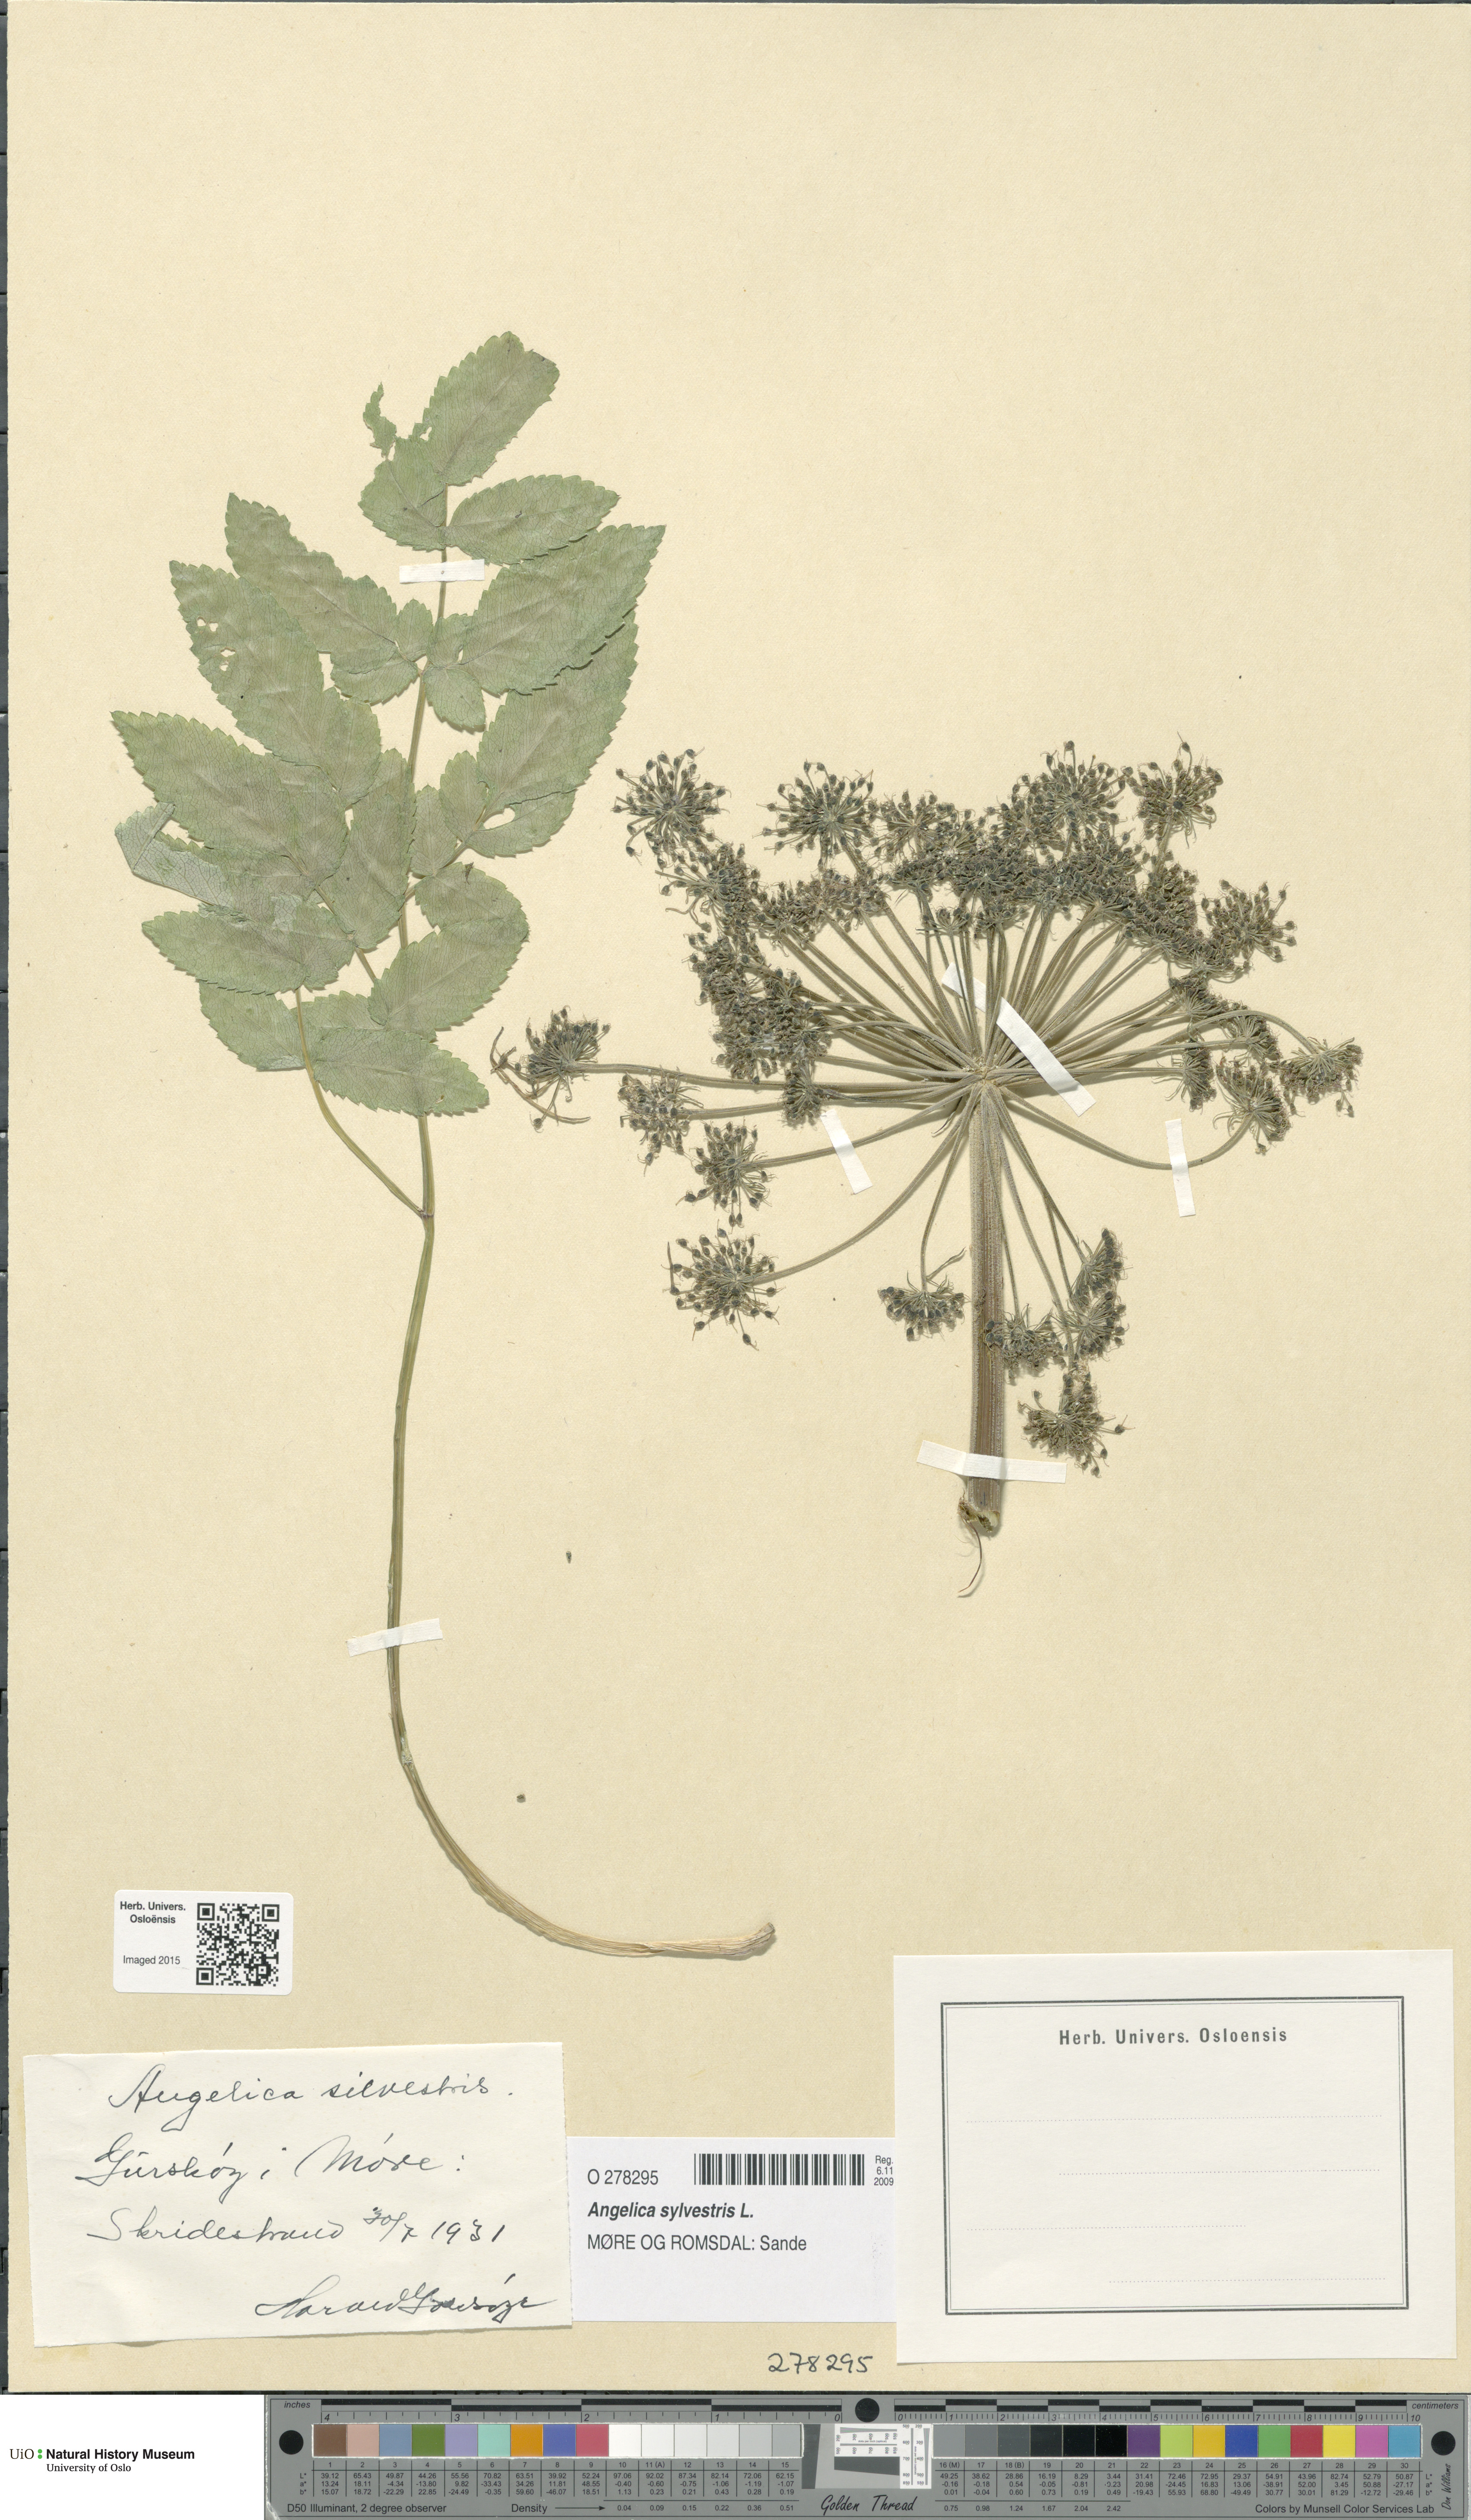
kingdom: Plantae
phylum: Tracheophyta
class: Magnoliopsida
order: Apiales
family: Apiaceae
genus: Angelica
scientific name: Angelica sylvestris
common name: Wild angelica
